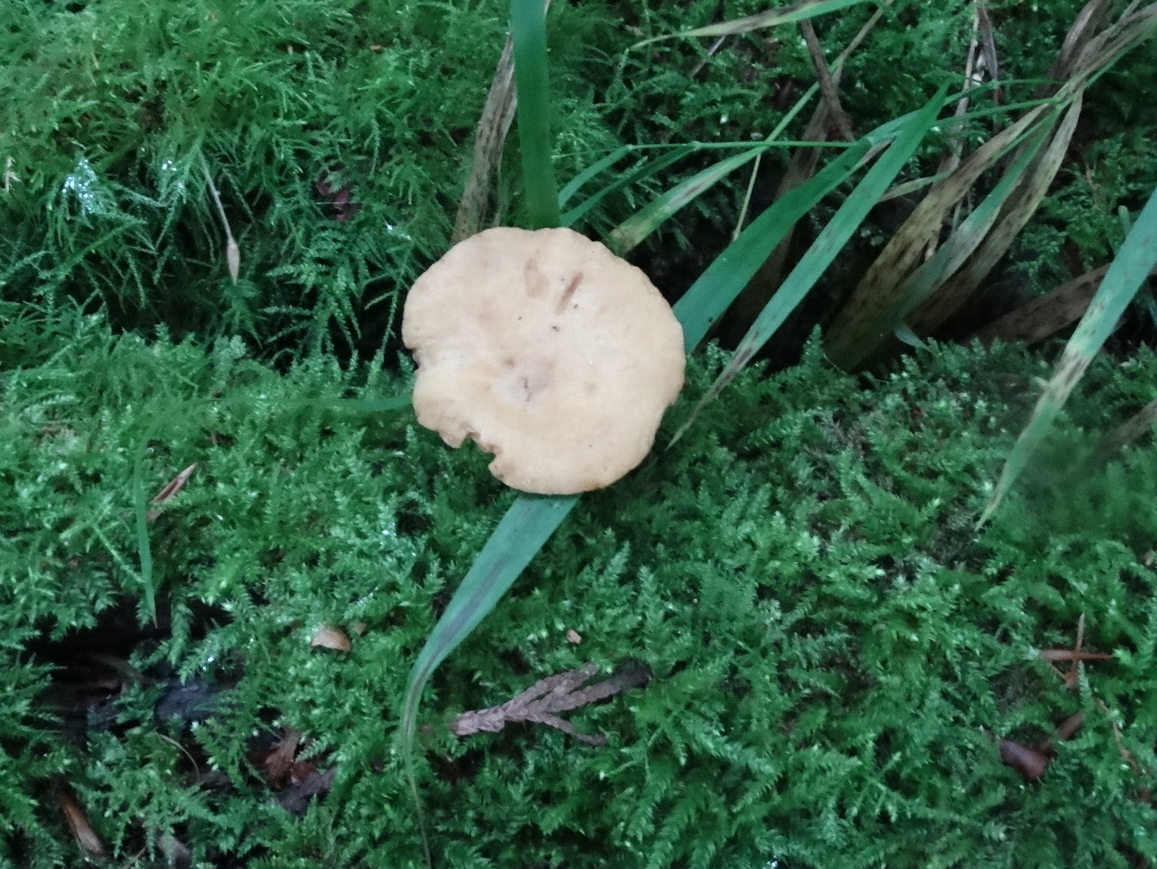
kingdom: Fungi
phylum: Basidiomycota
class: Agaricomycetes
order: Polyporales
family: Polyporaceae
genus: Cerioporus
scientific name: Cerioporus varius
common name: foranderlig stilkporesvamp
